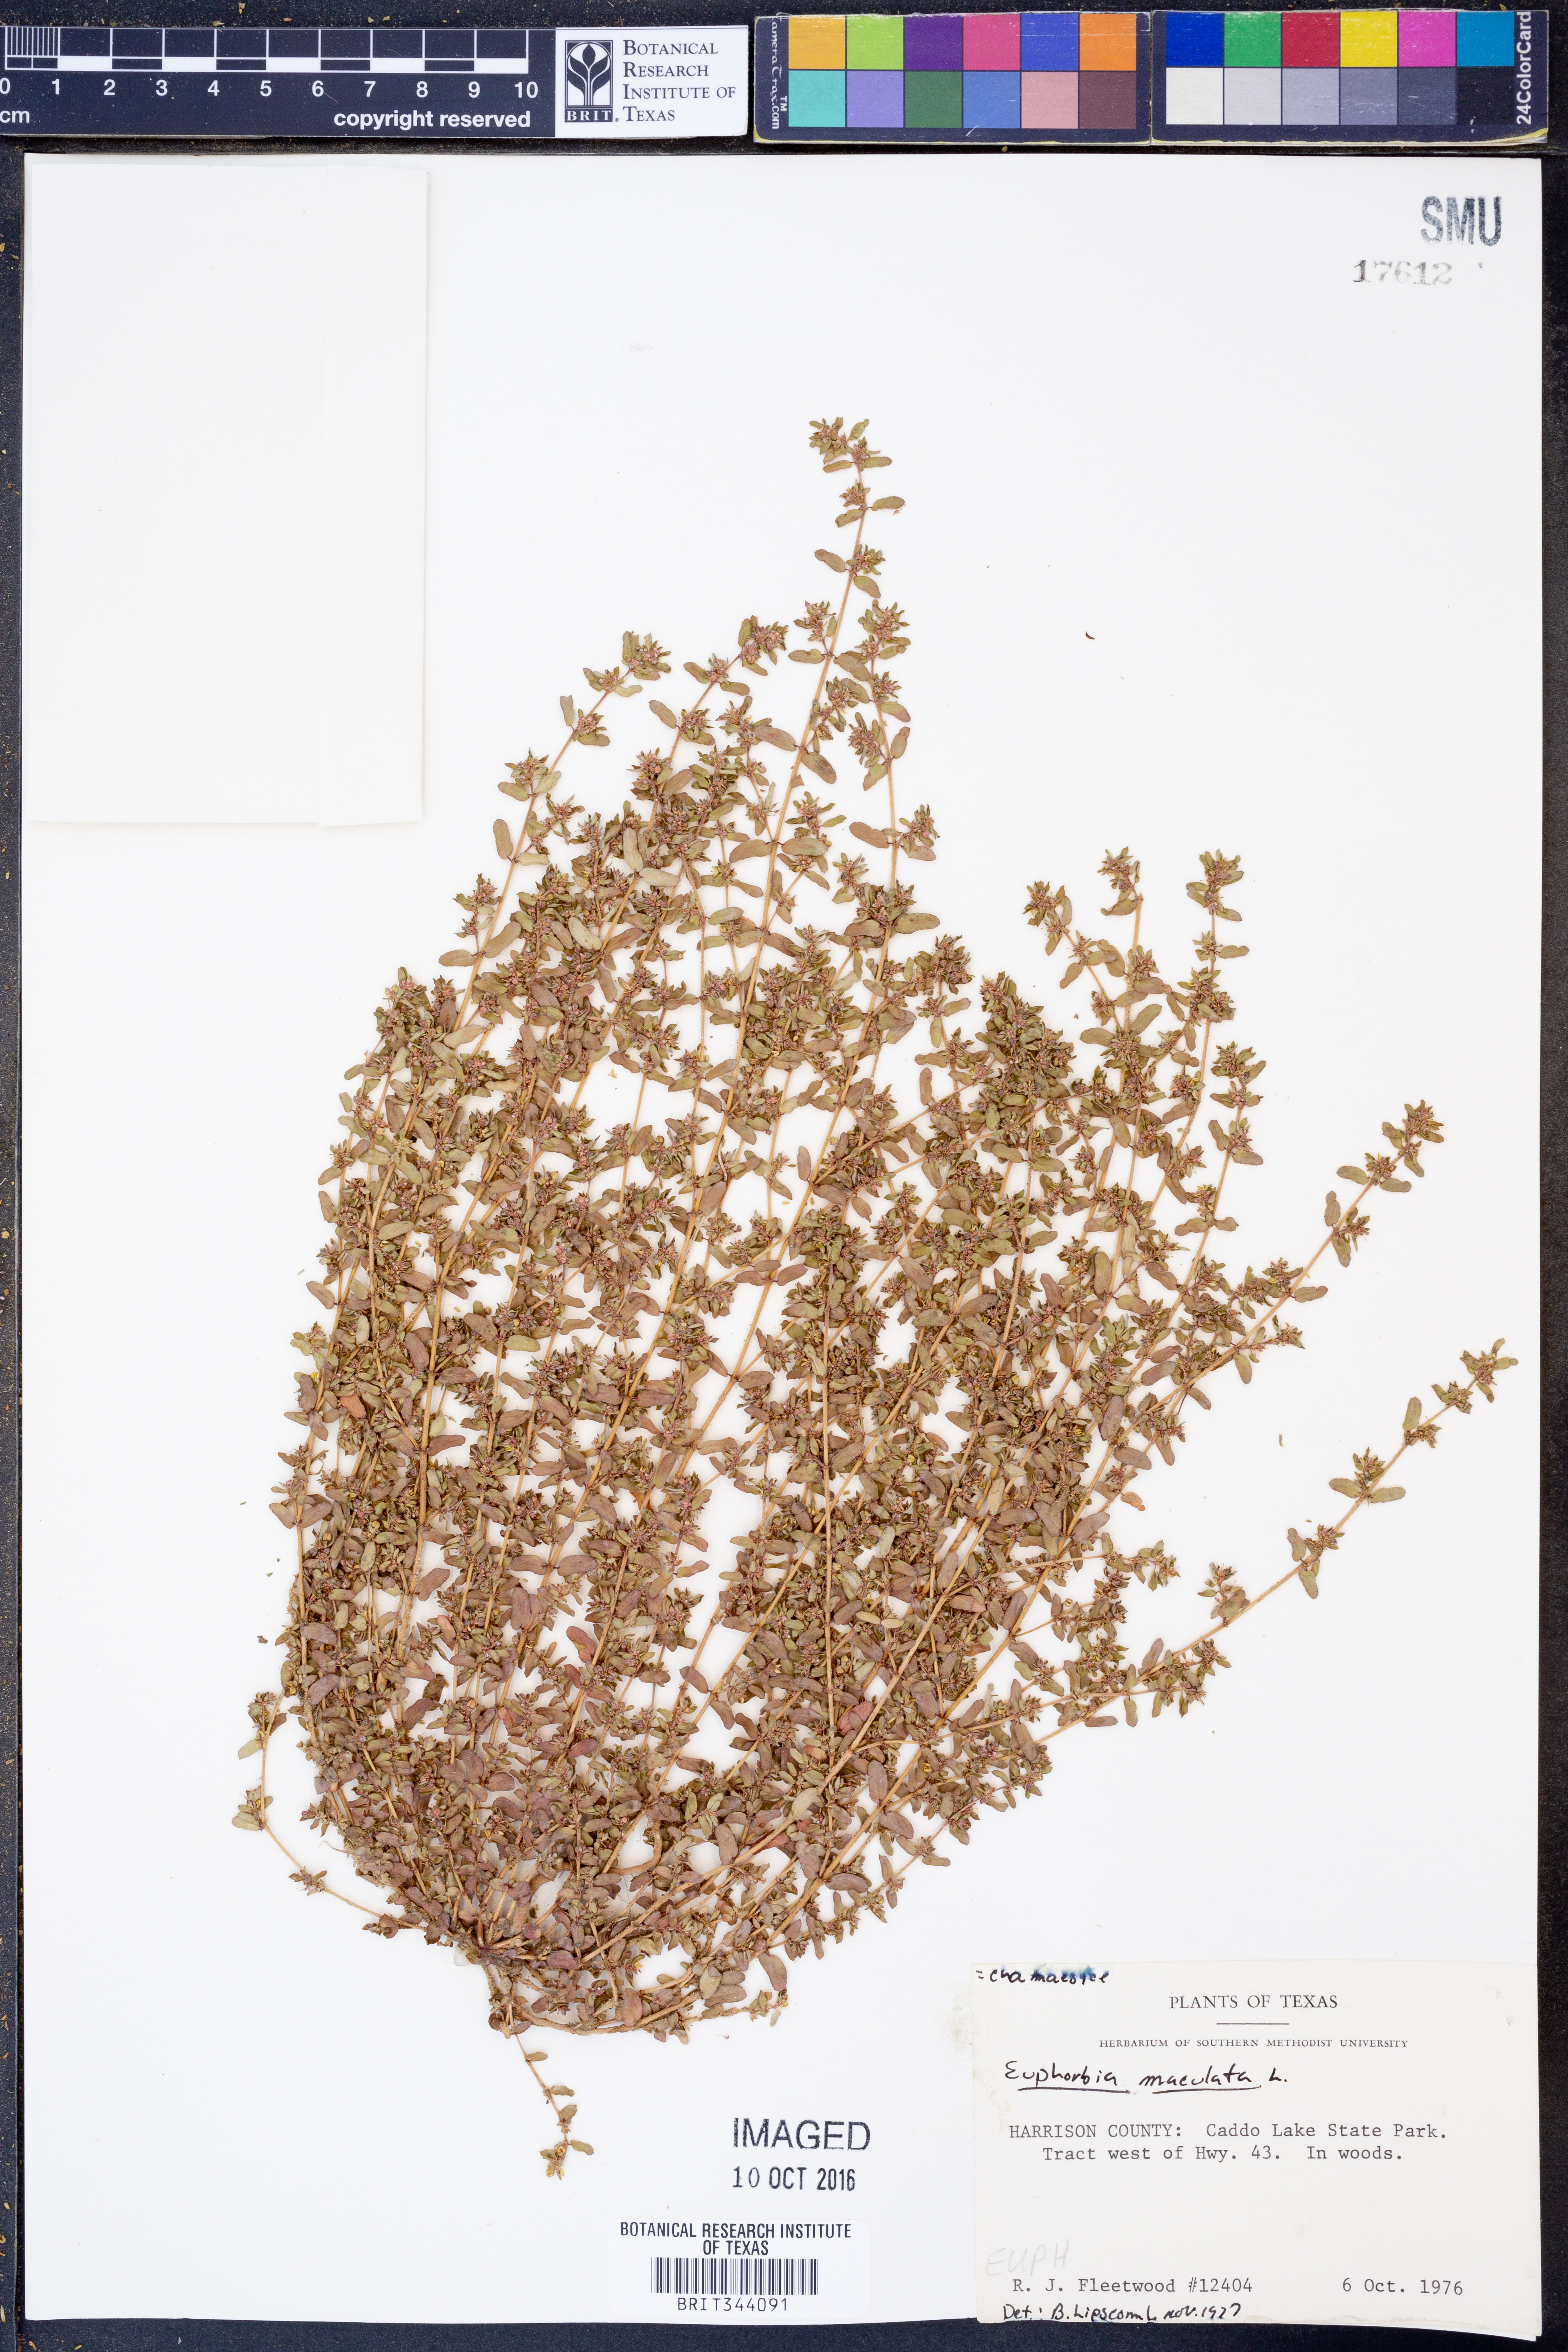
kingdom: Plantae
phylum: Tracheophyta
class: Magnoliopsida
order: Malpighiales
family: Euphorbiaceae
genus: Euphorbia
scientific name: Euphorbia maculata
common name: Spotted spurge
